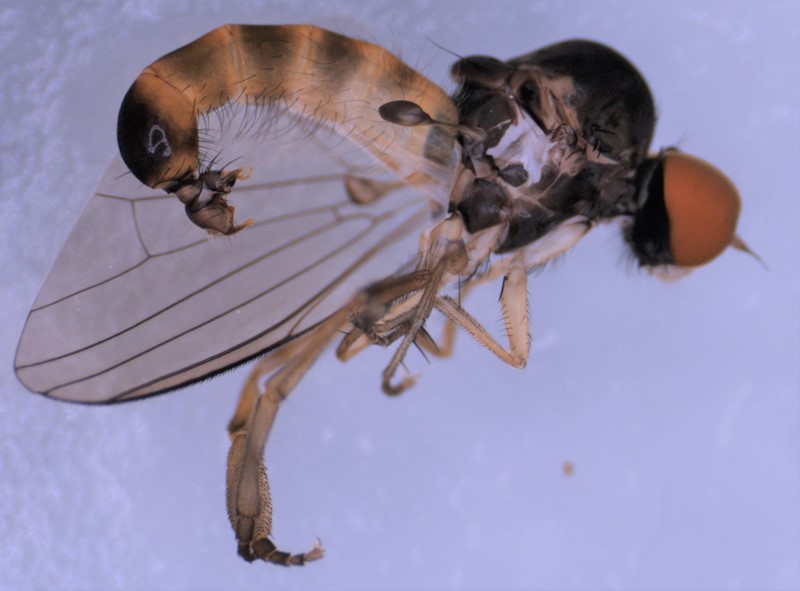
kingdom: Animalia
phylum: Arthropoda
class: Insecta
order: Diptera
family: Platypezidae
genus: Agathomyia
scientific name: Agathomyia falleni
